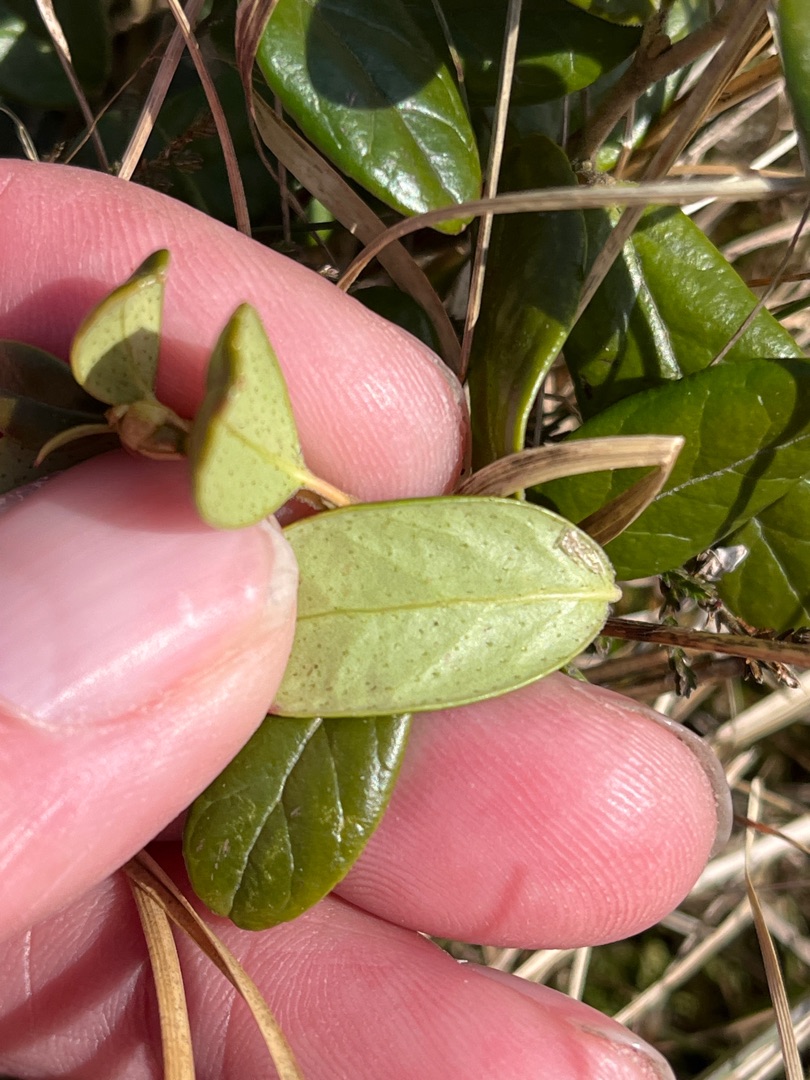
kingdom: Plantae
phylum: Tracheophyta
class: Magnoliopsida
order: Ericales
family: Ericaceae
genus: Vaccinium
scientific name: Vaccinium vitis-idaea
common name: Tyttebær
